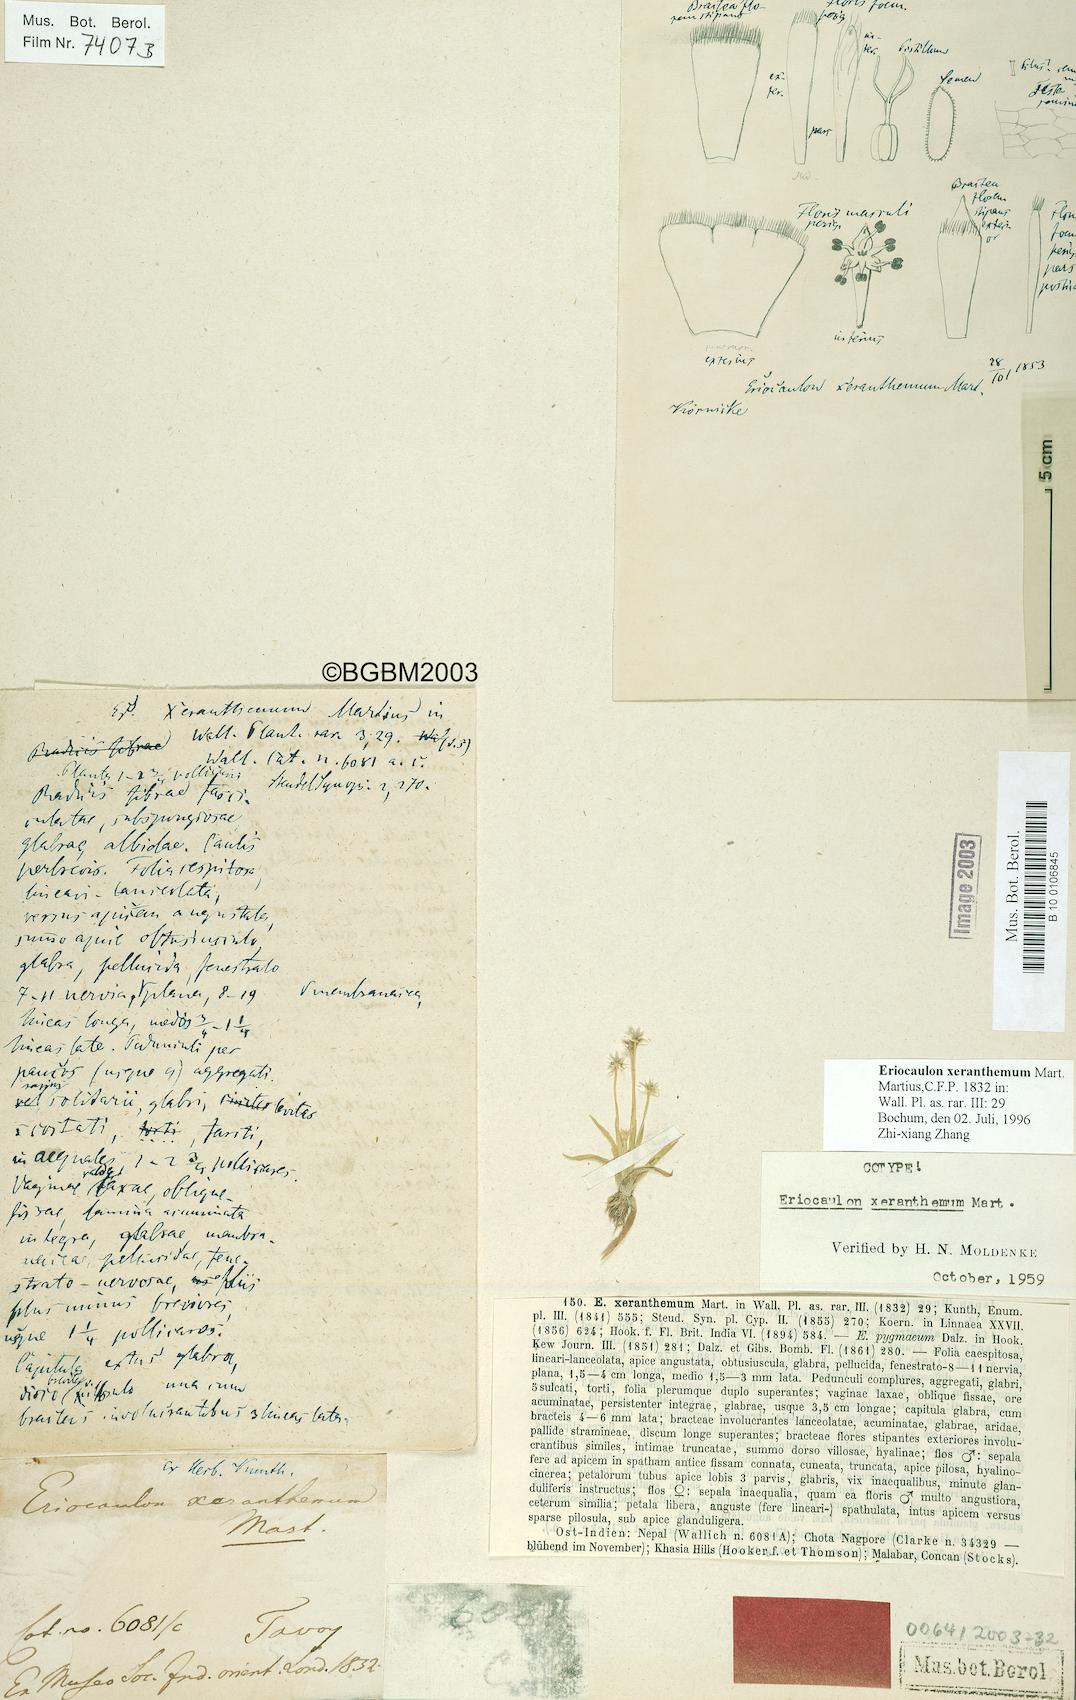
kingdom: Plantae
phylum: Tracheophyta
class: Liliopsida
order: Poales
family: Eriocaulaceae
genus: Eriocaulon
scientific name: Eriocaulon xeranthemum
